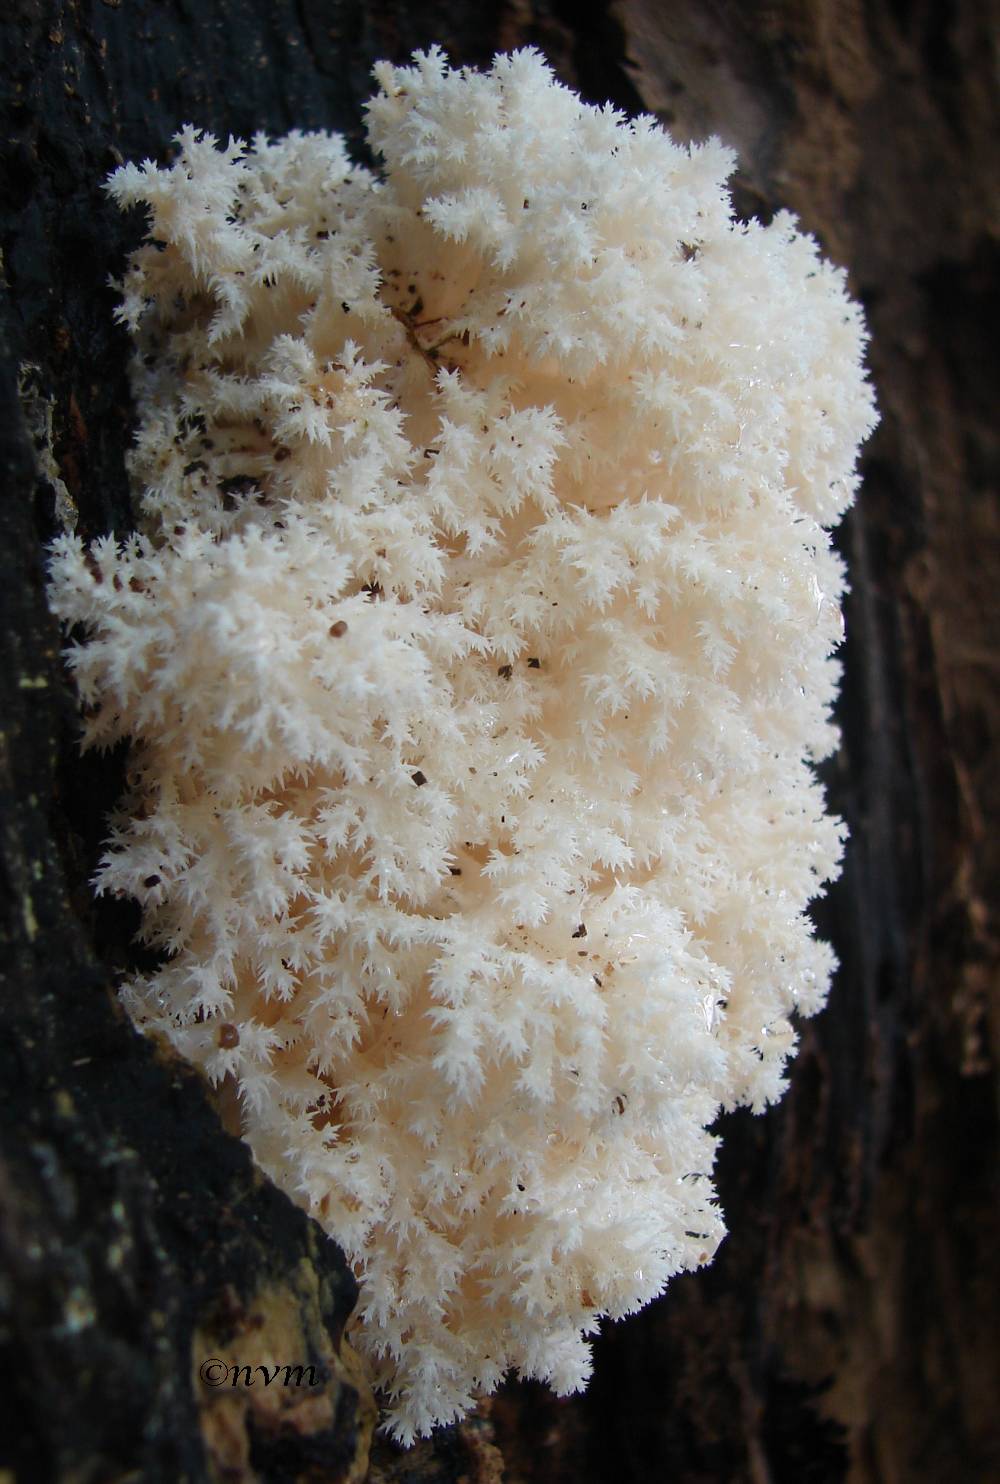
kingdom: Fungi
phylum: Basidiomycota
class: Agaricomycetes
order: Russulales
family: Hericiaceae
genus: Hericium
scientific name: Hericium coralloides
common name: koralpigsvamp
